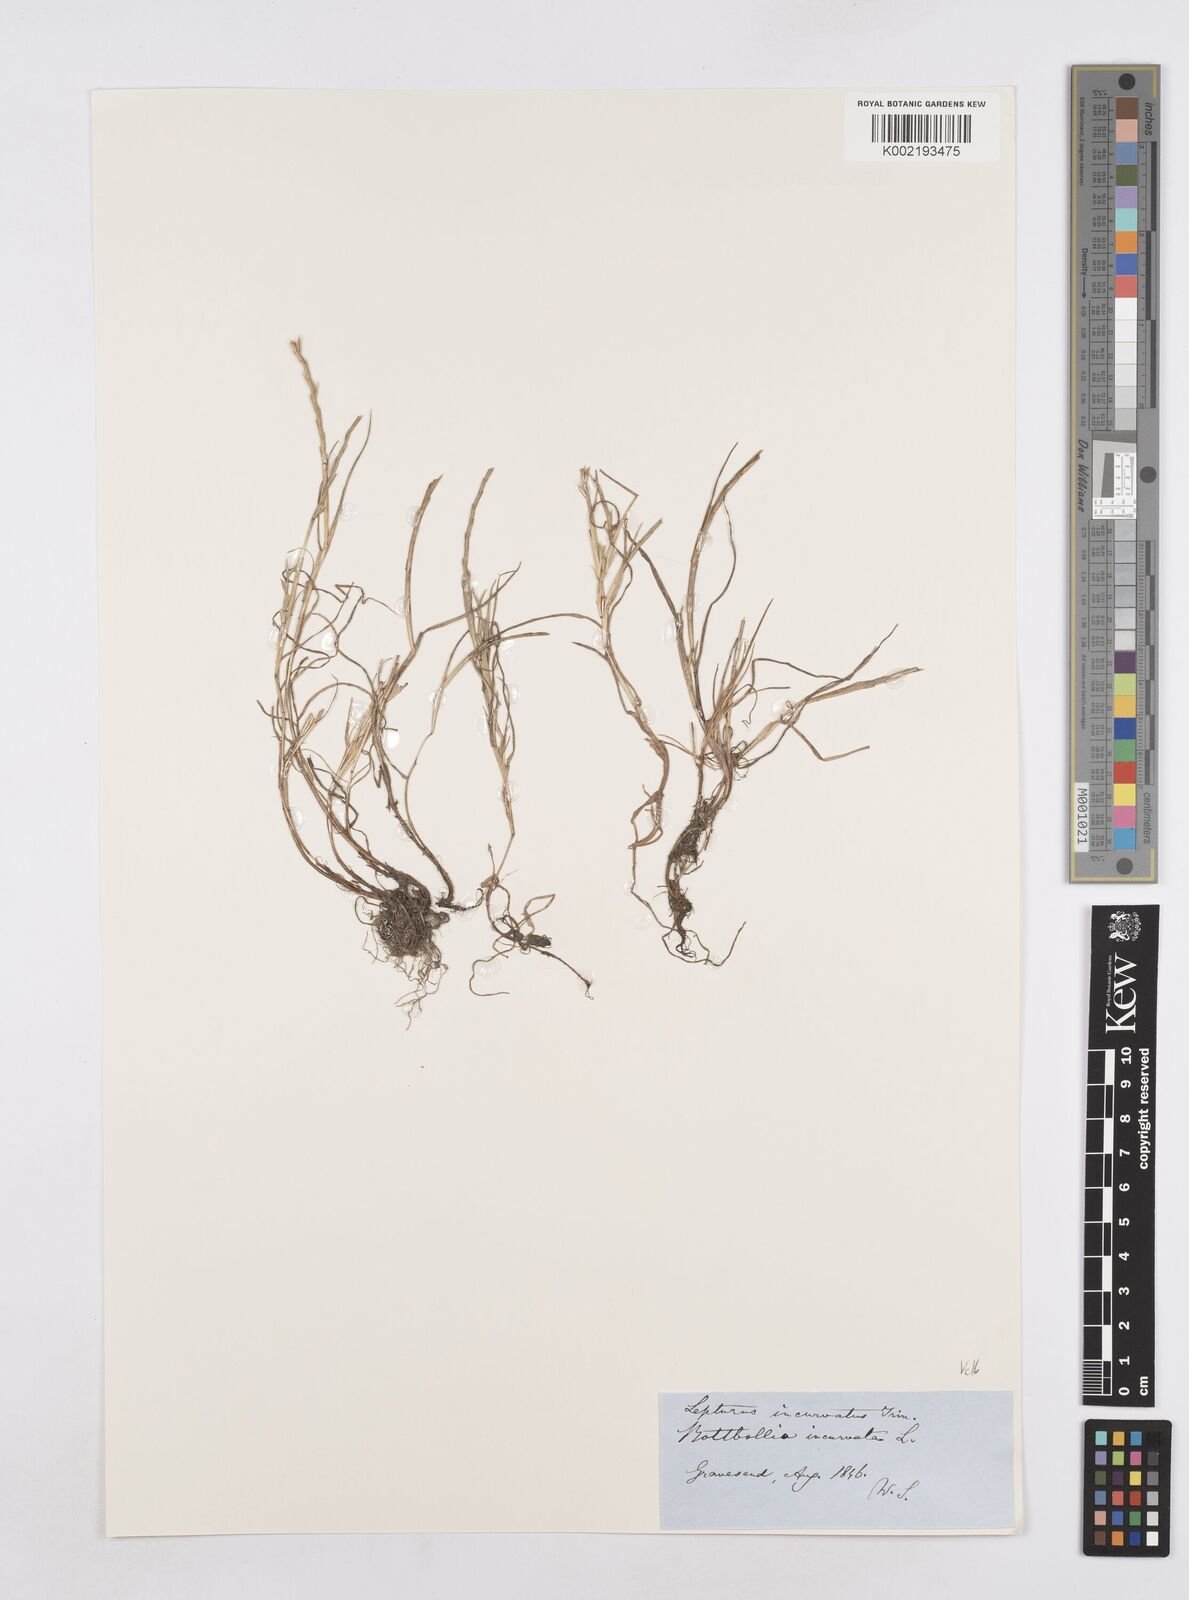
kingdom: Plantae
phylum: Tracheophyta
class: Liliopsida
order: Poales
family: Poaceae
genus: Parapholis
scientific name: Parapholis incurva
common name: Curved sicklegrass
